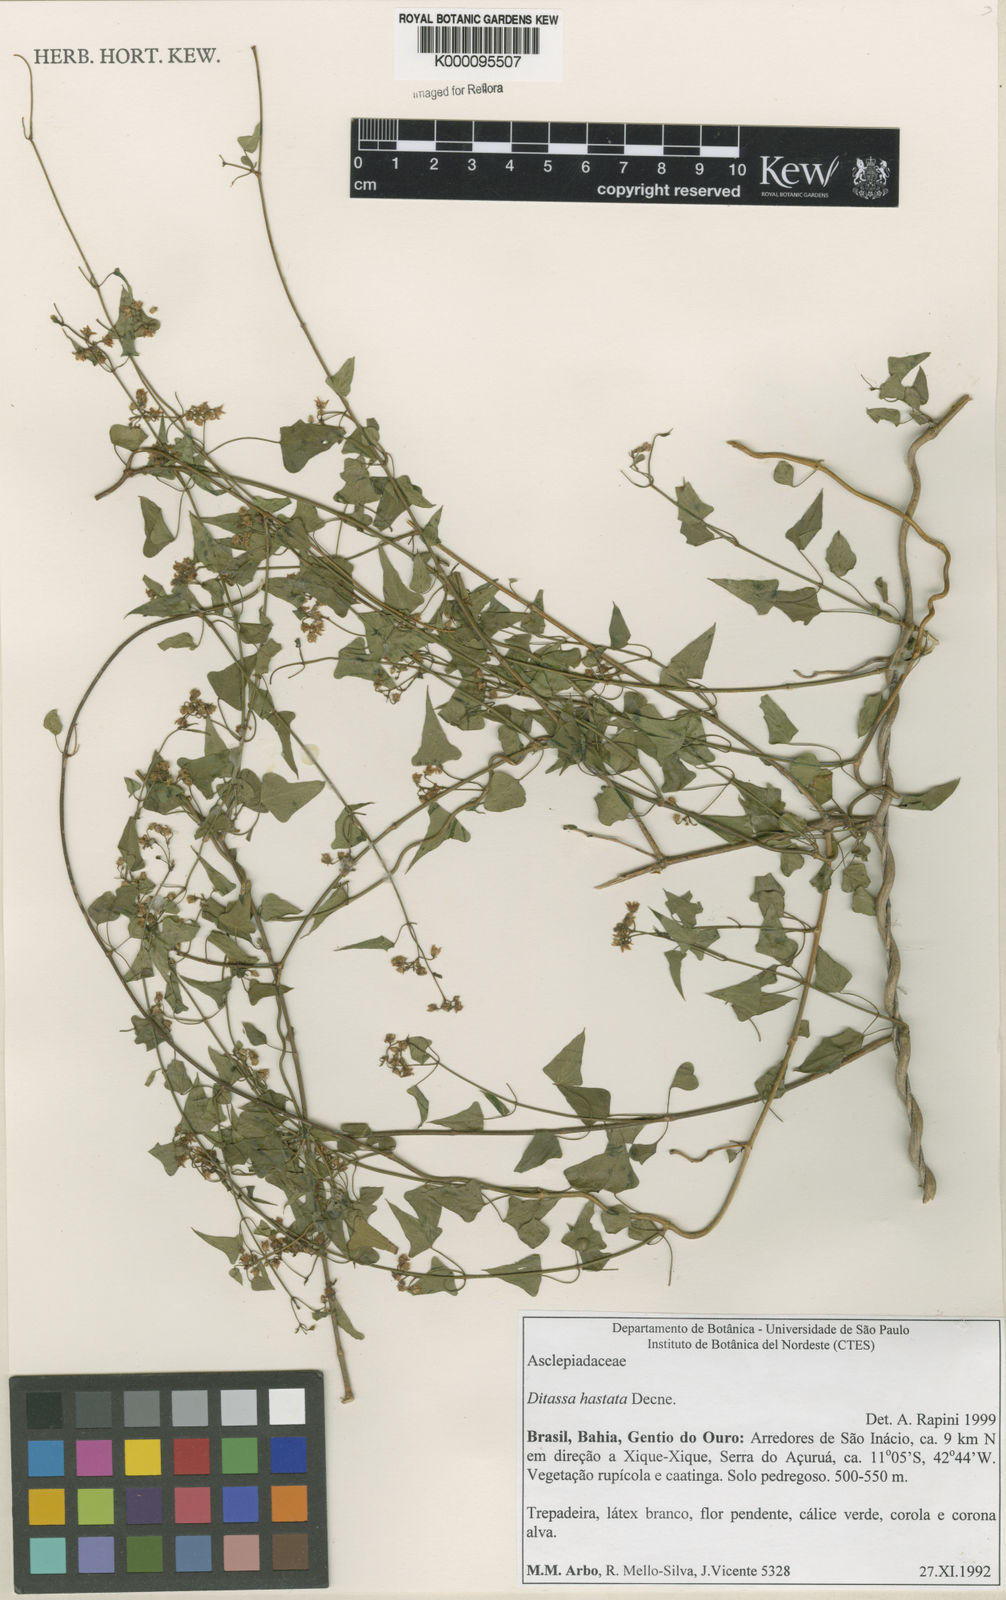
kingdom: Plantae
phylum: Tracheophyta
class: Magnoliopsida
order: Gentianales
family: Apocynaceae
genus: Ditassa
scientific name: Ditassa hastata
